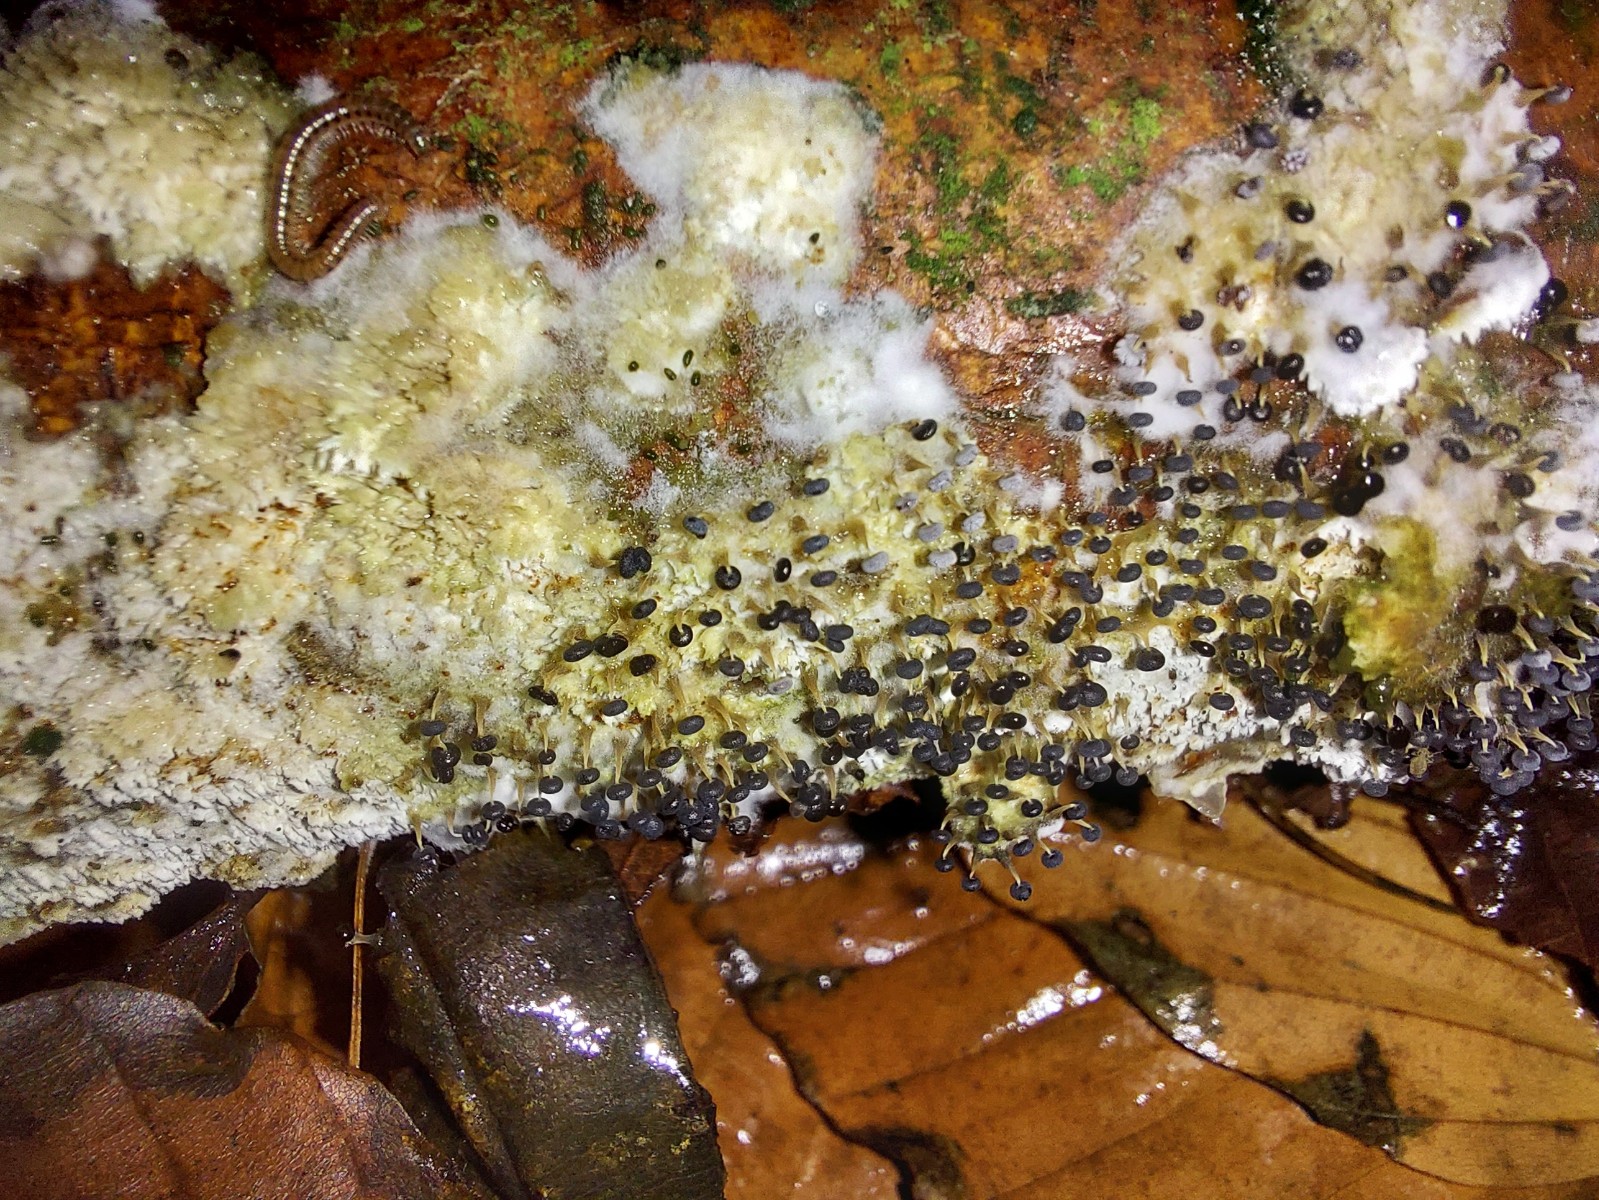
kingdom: Protozoa
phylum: Mycetozoa
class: Myxomycetes
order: Physarales
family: Physaraceae
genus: Physarum
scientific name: Physarum album
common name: nikkende støvknop
